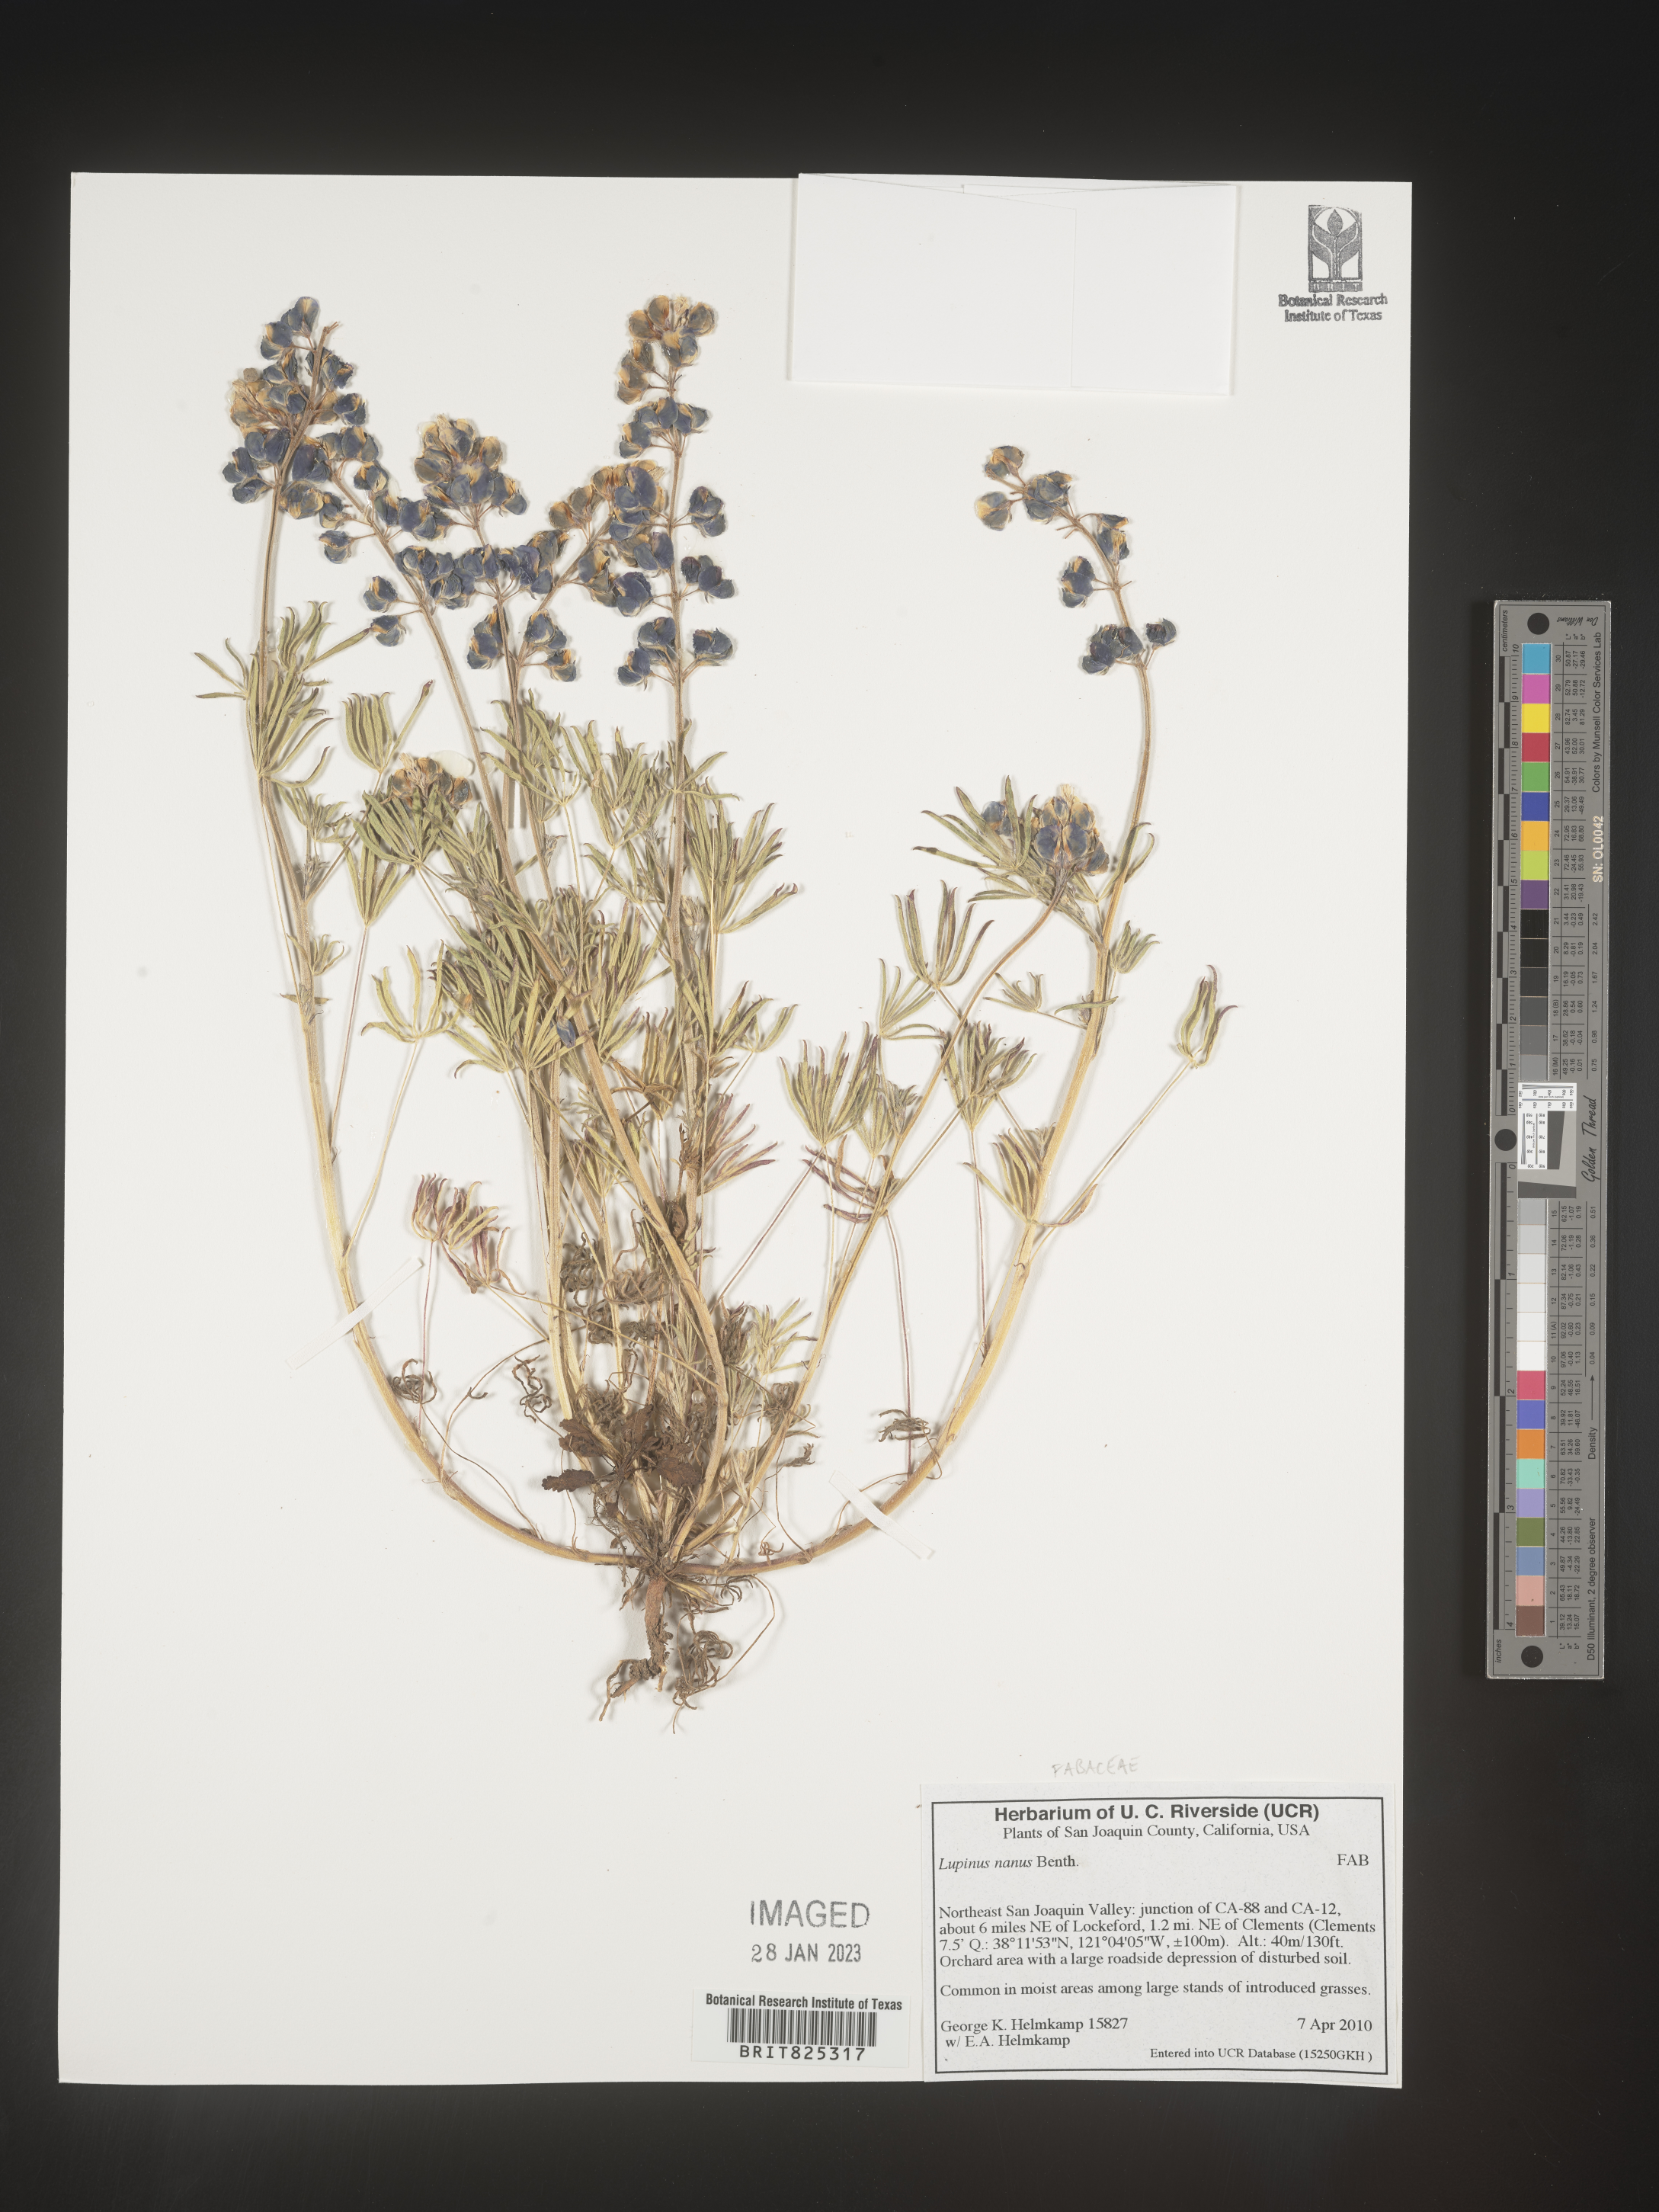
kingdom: Plantae
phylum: Tracheophyta
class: Magnoliopsida
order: Fabales
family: Fabaceae
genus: Lupinus
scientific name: Lupinus nanus
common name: Orean blue lupin
